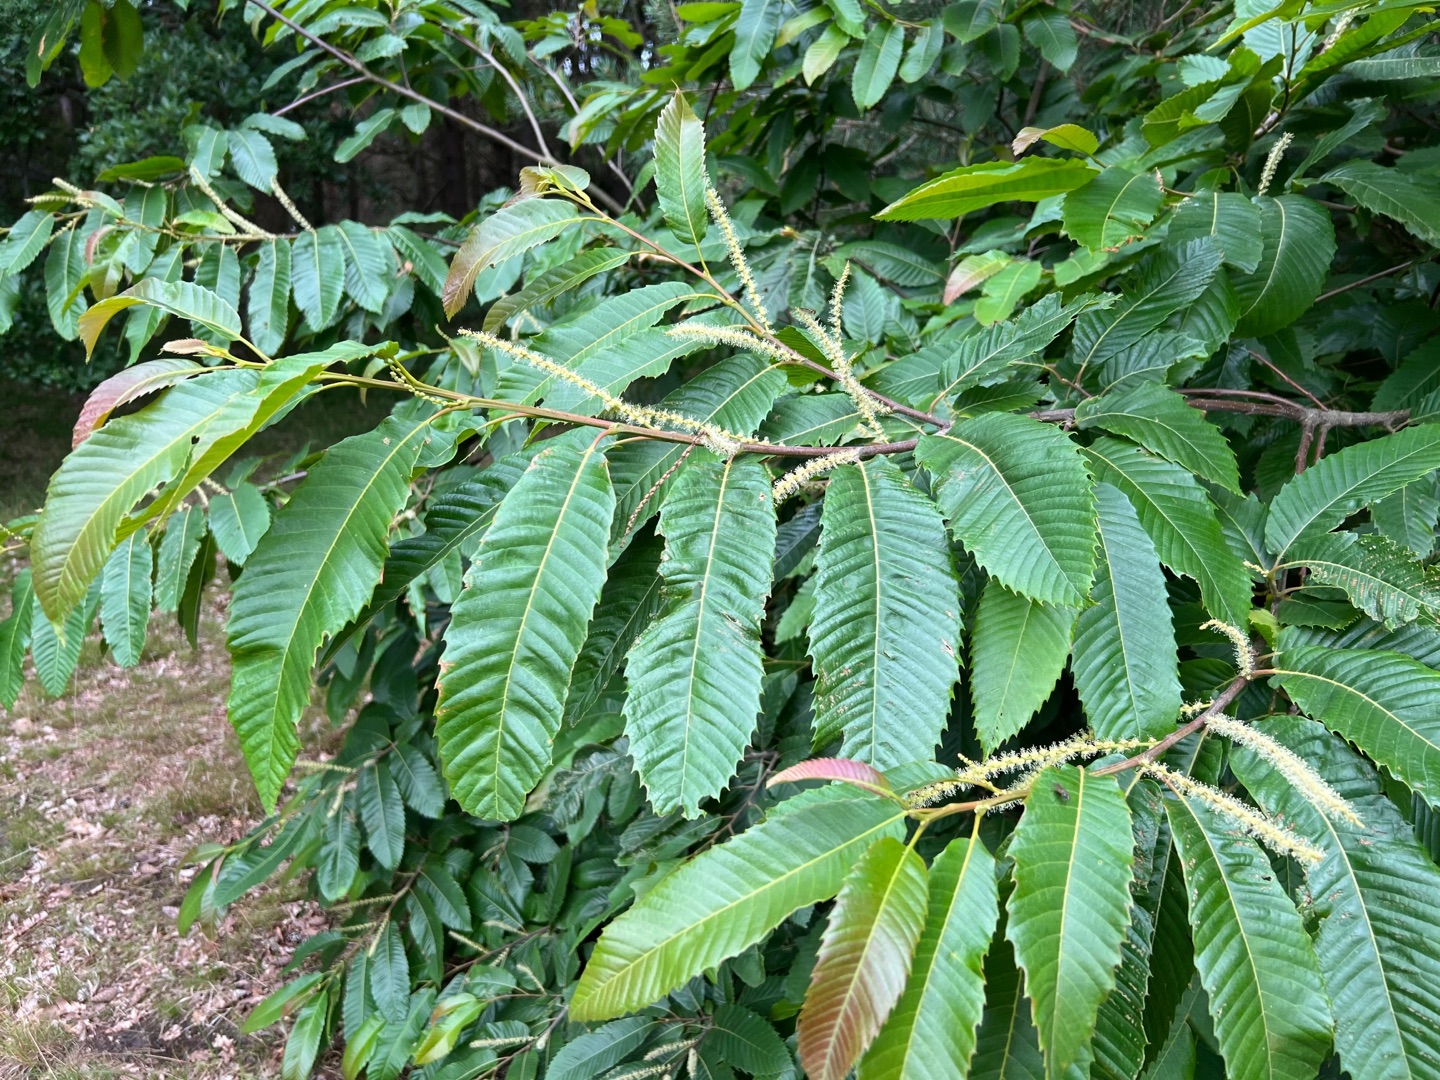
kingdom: Plantae
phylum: Tracheophyta
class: Magnoliopsida
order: Fagales
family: Fagaceae
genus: Castanea
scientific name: Castanea sativa
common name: Ægte kastanie
